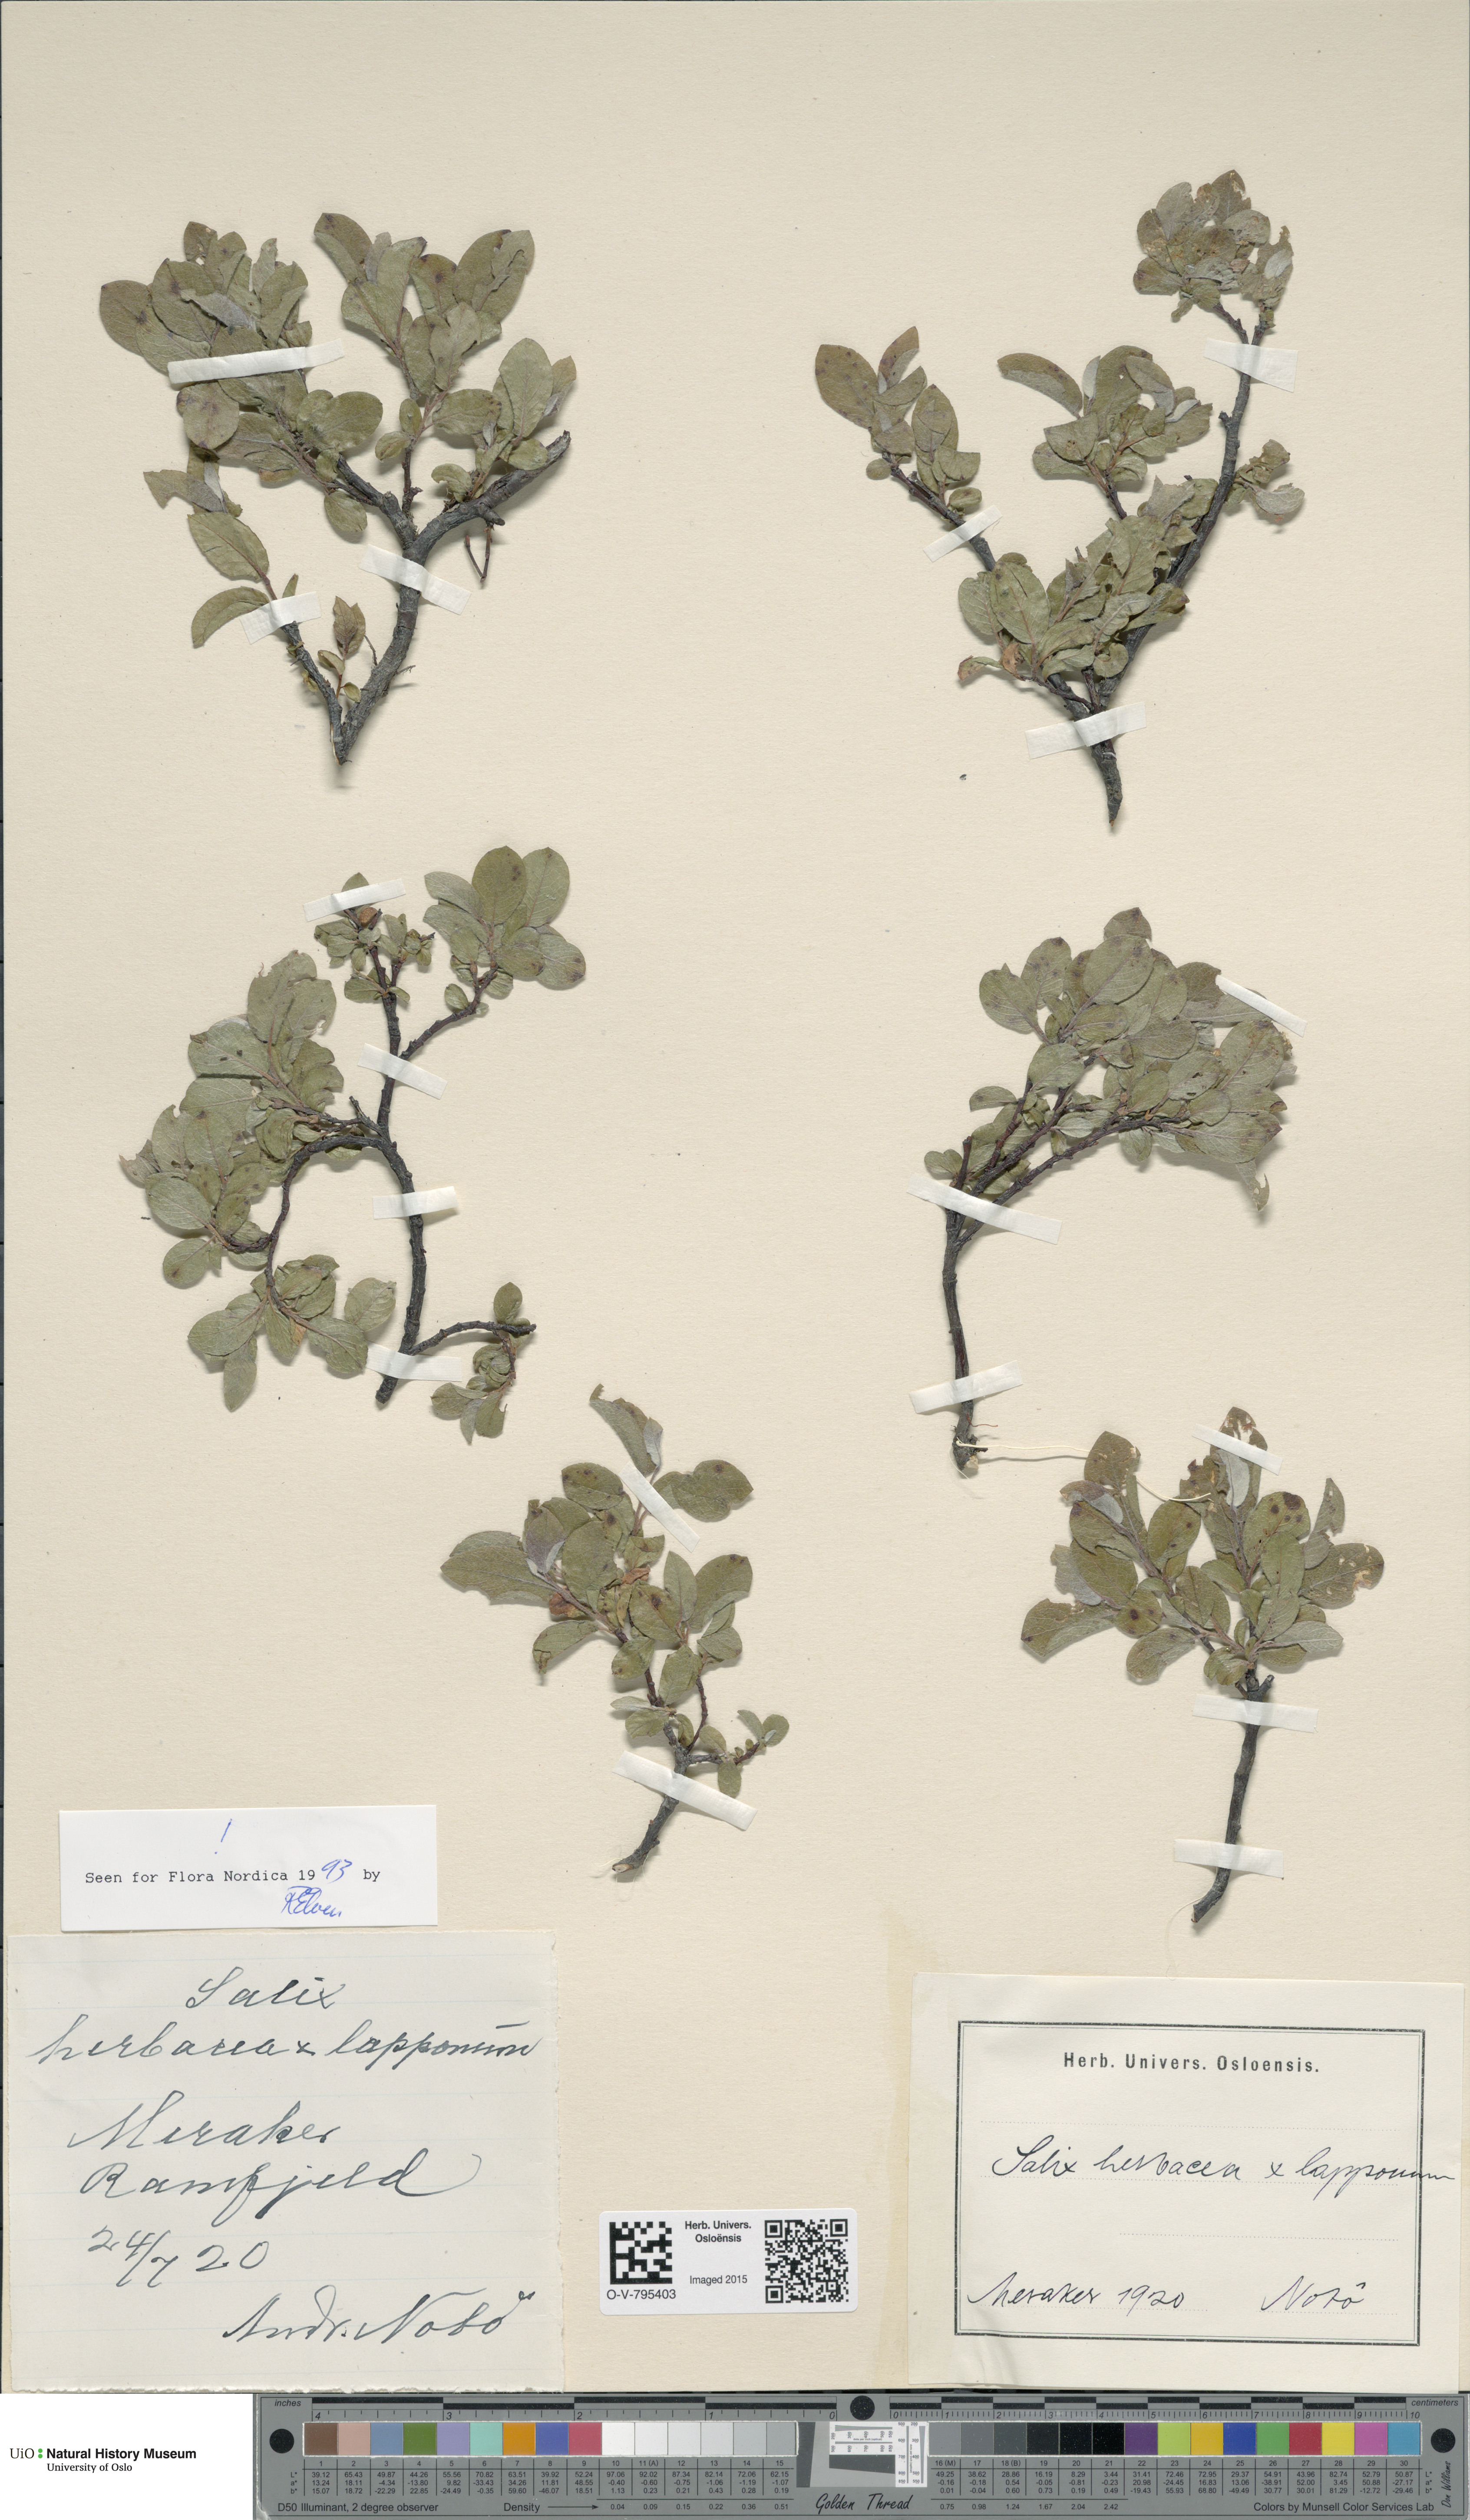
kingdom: Plantae
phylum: Tracheophyta
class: Magnoliopsida
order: Malpighiales
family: Salicaceae
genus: Salix
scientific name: Salix
